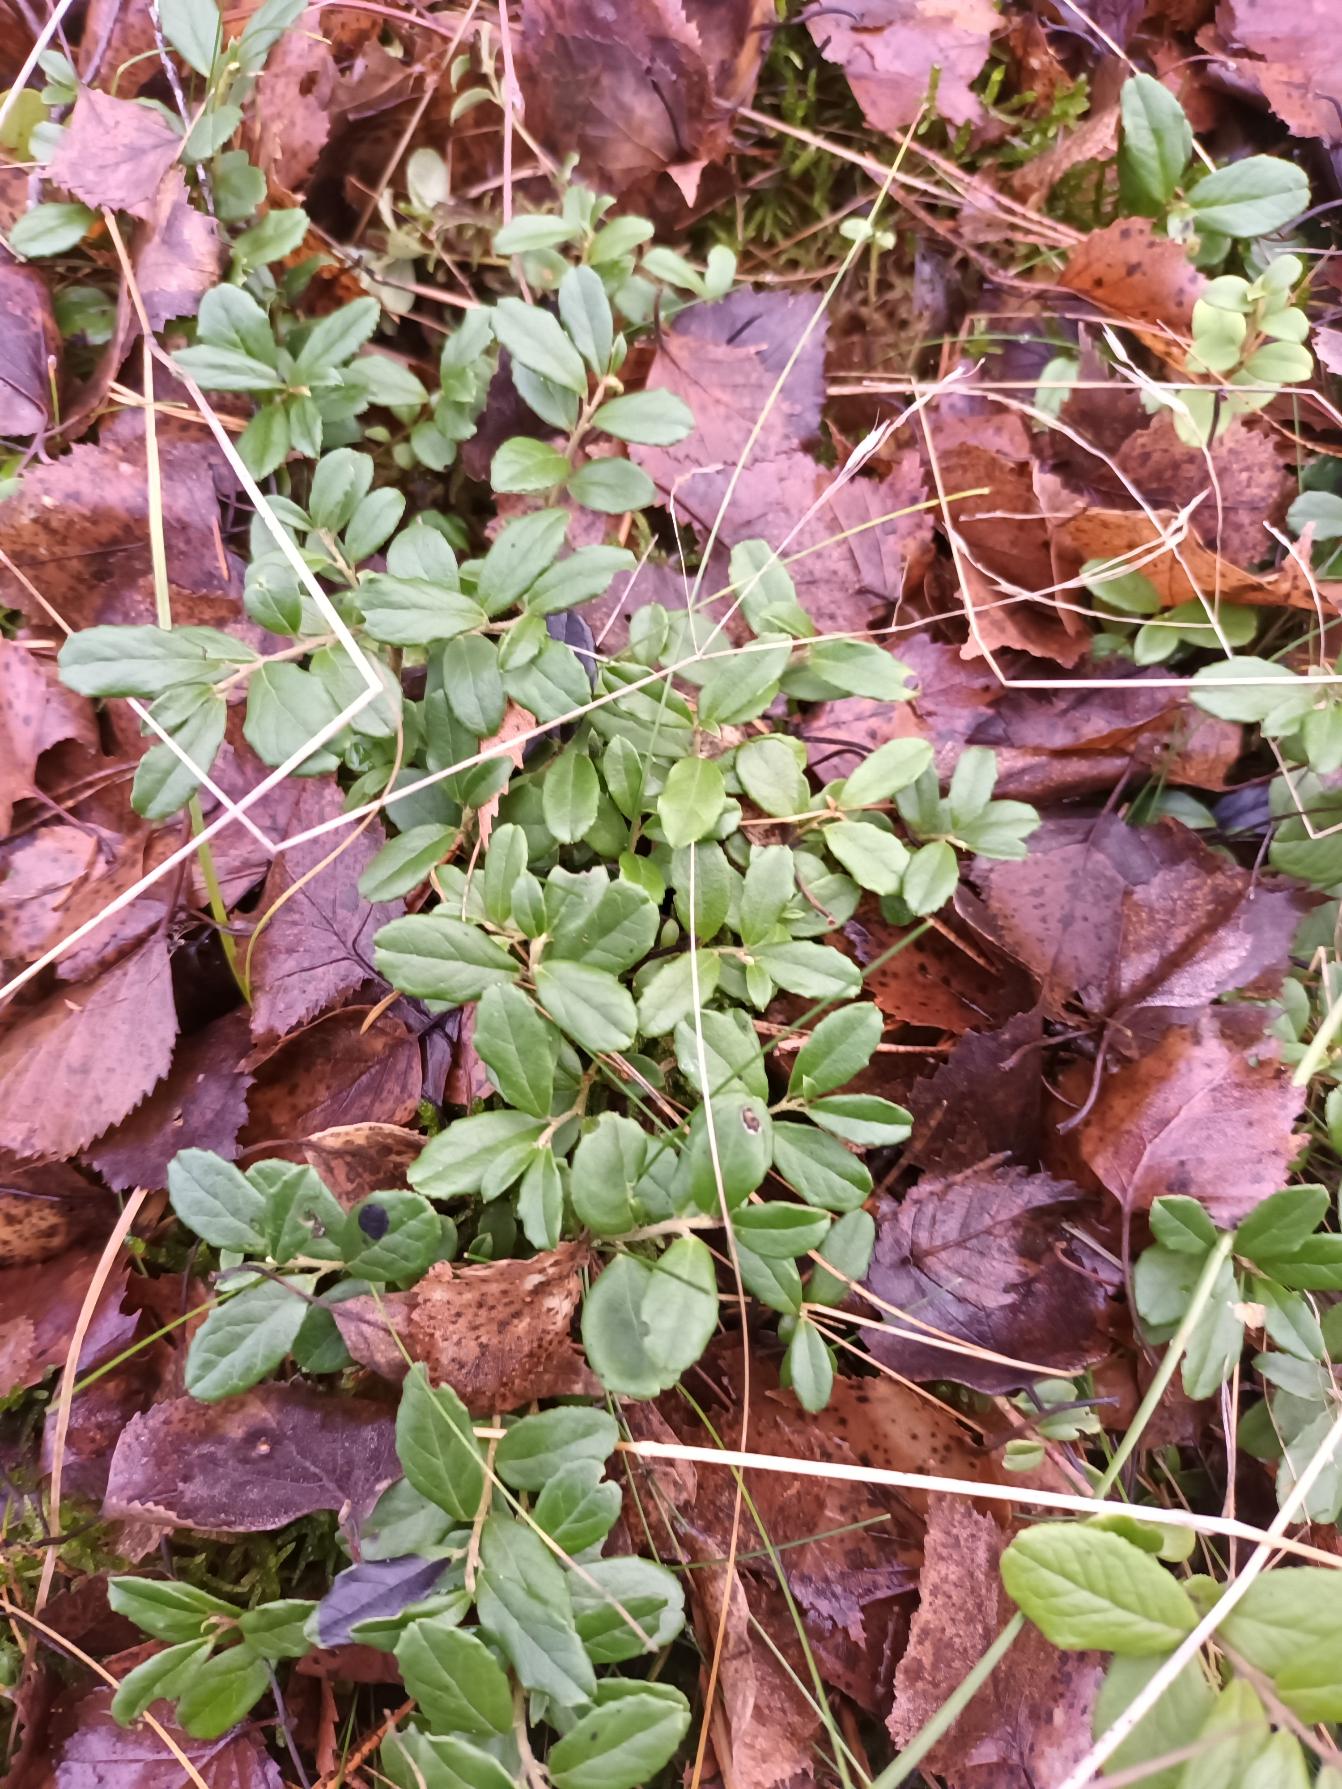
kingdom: Plantae
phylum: Tracheophyta
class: Magnoliopsida
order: Ericales
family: Ericaceae
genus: Vaccinium
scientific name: Vaccinium vitis-idaea
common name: Tyttebær
